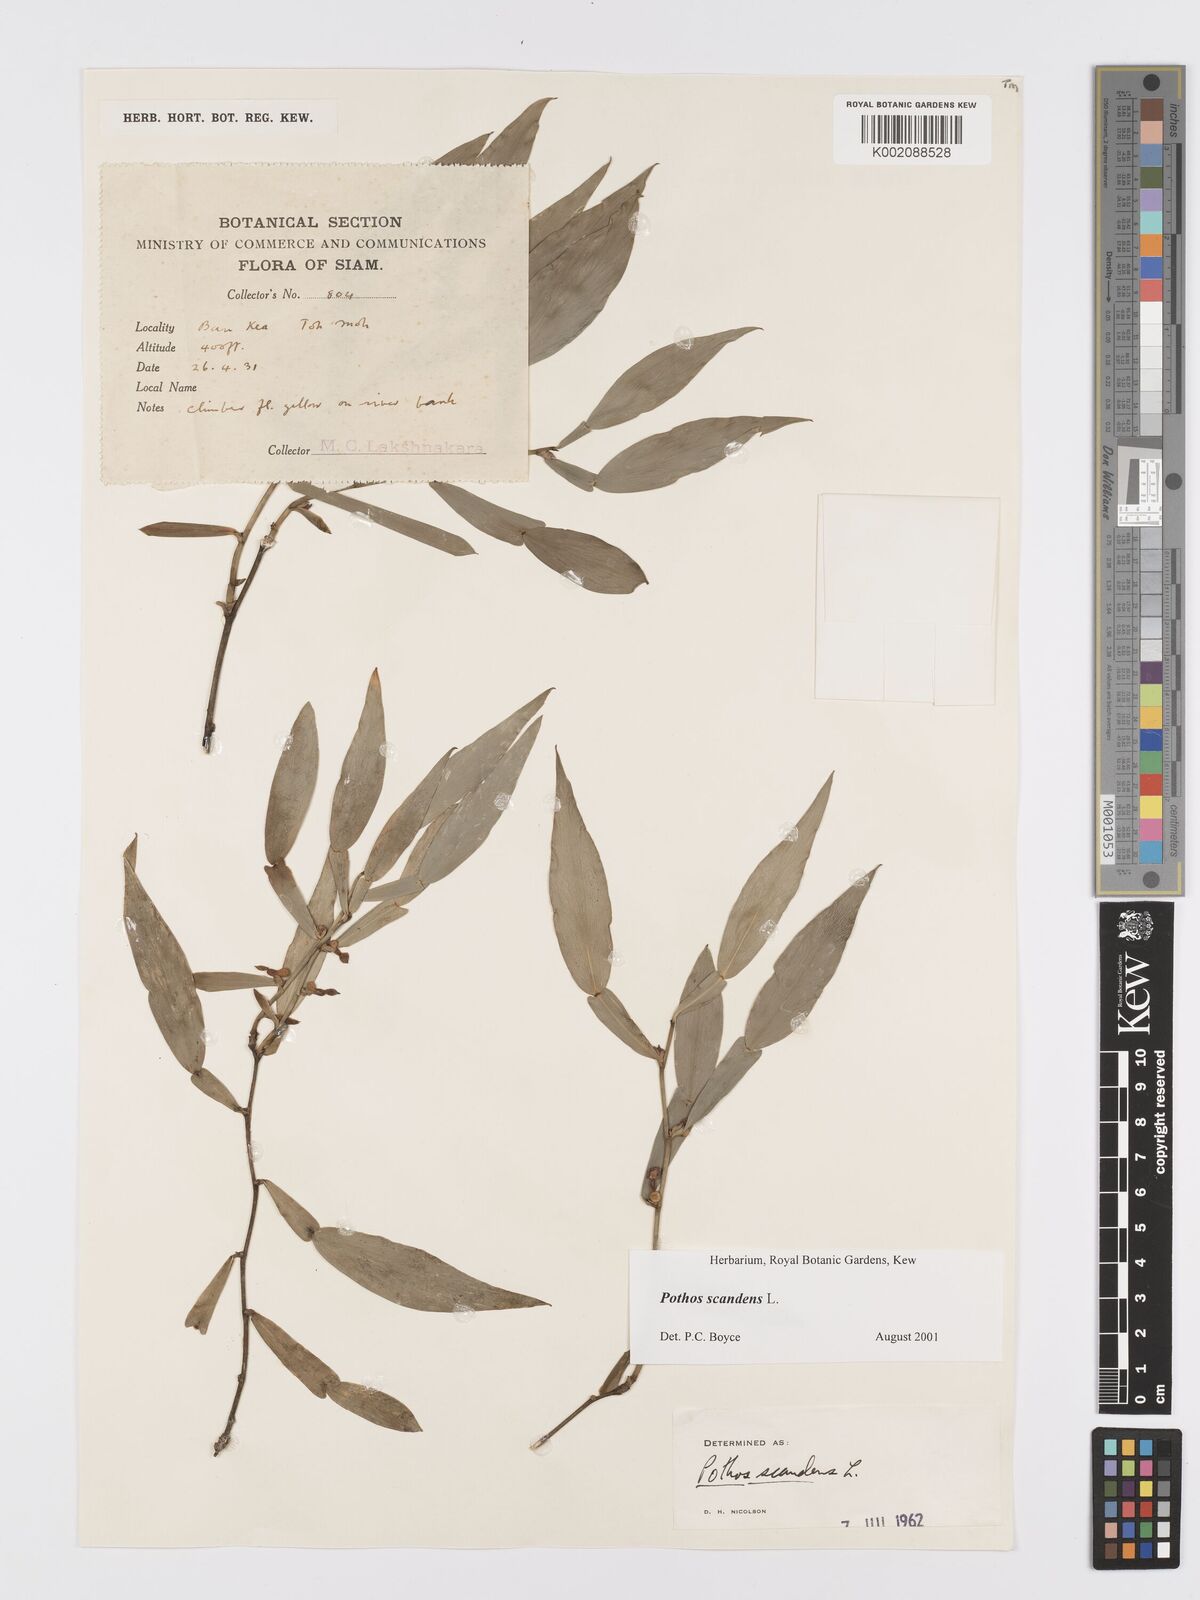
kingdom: Plantae
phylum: Tracheophyta
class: Liliopsida
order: Alismatales
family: Araceae
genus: Pothos
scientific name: Pothos scandens
